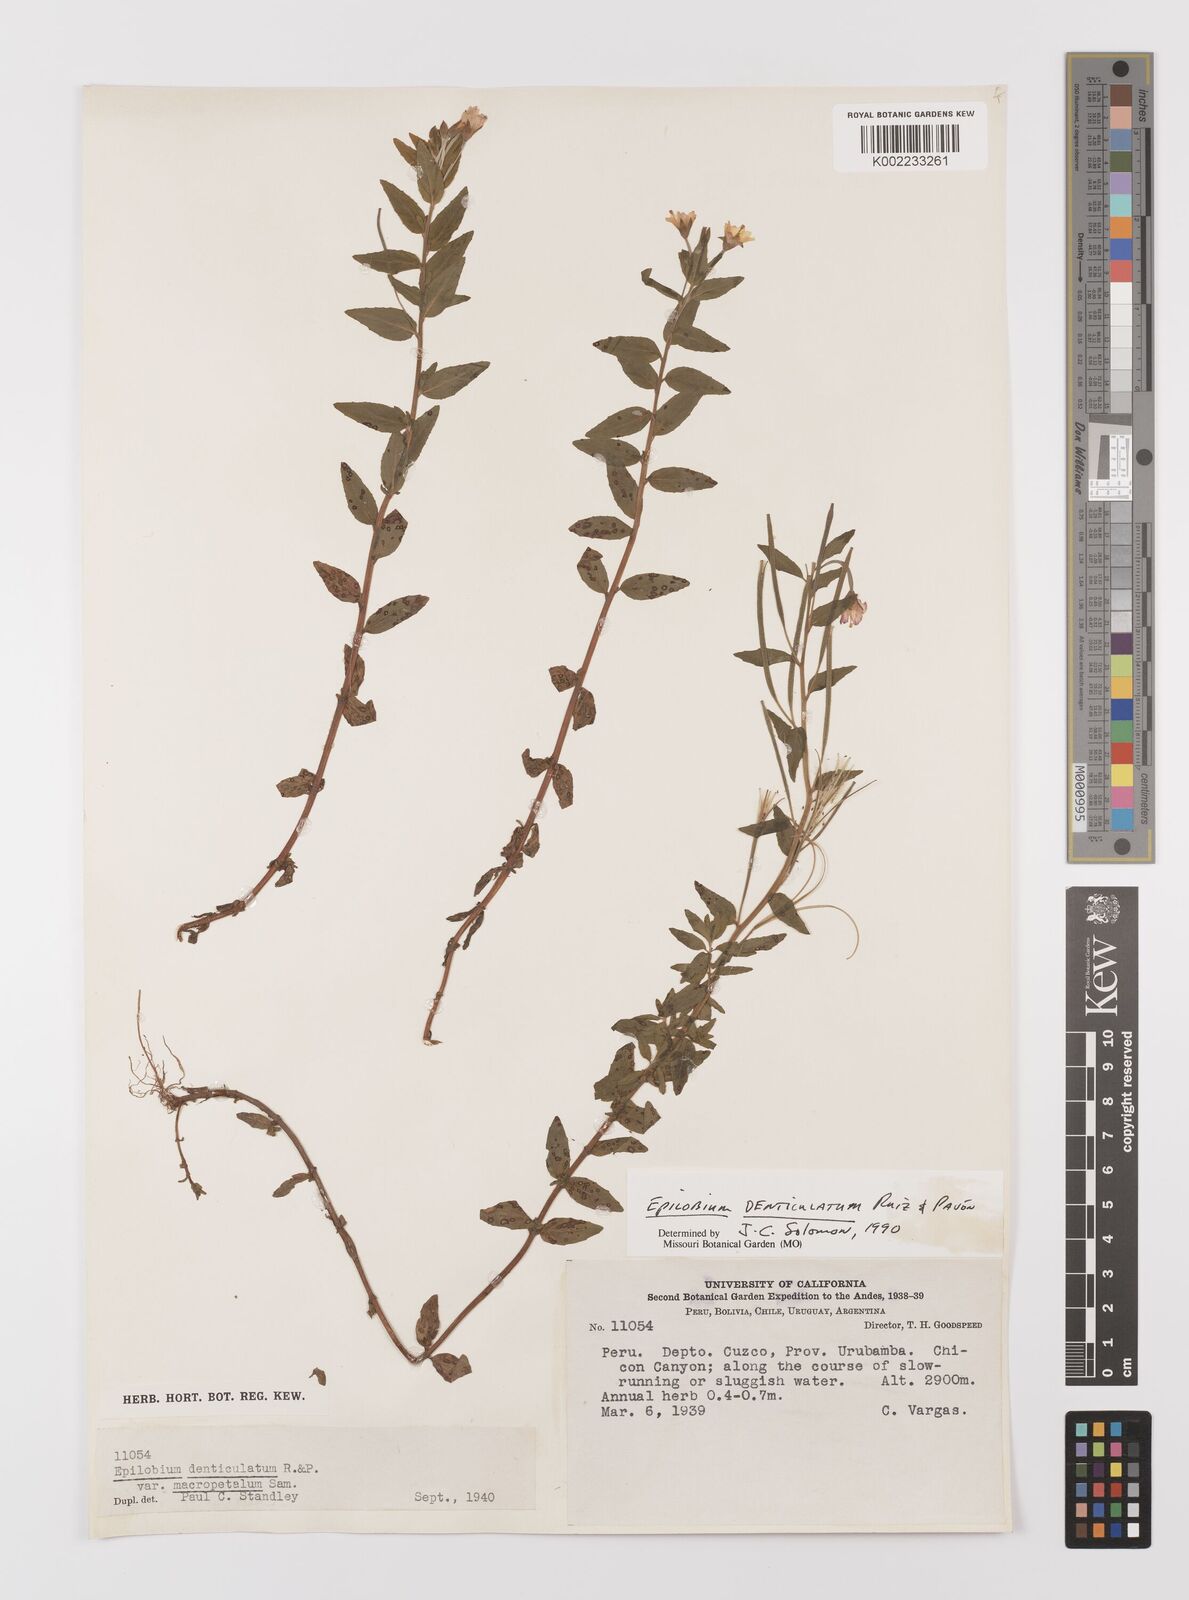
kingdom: Plantae
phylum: Tracheophyta
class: Magnoliopsida
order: Myrtales
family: Onagraceae
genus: Epilobium
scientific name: Epilobium denticulatum
